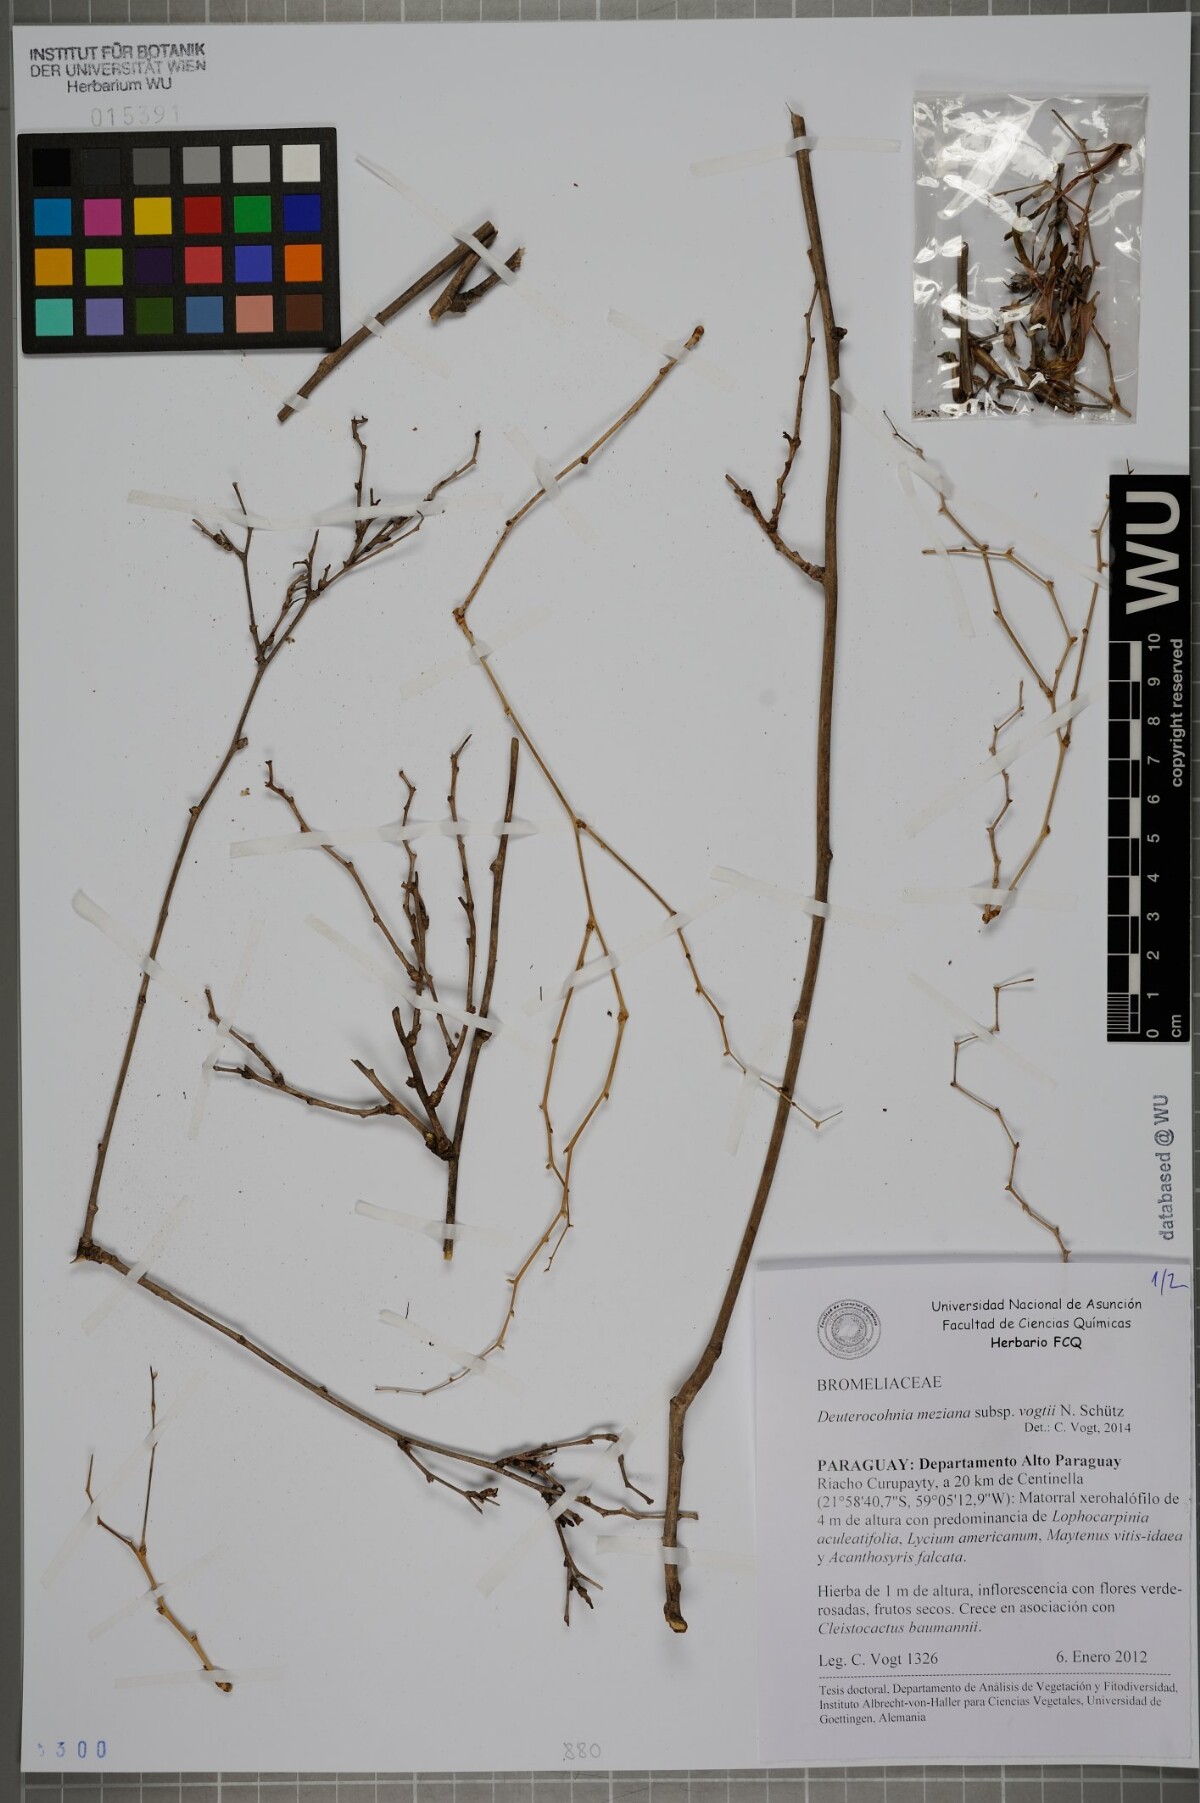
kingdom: Plantae
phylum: Tracheophyta
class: Liliopsida
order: Poales
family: Bromeliaceae
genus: Deuterocohnia
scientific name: Deuterocohnia meziana
